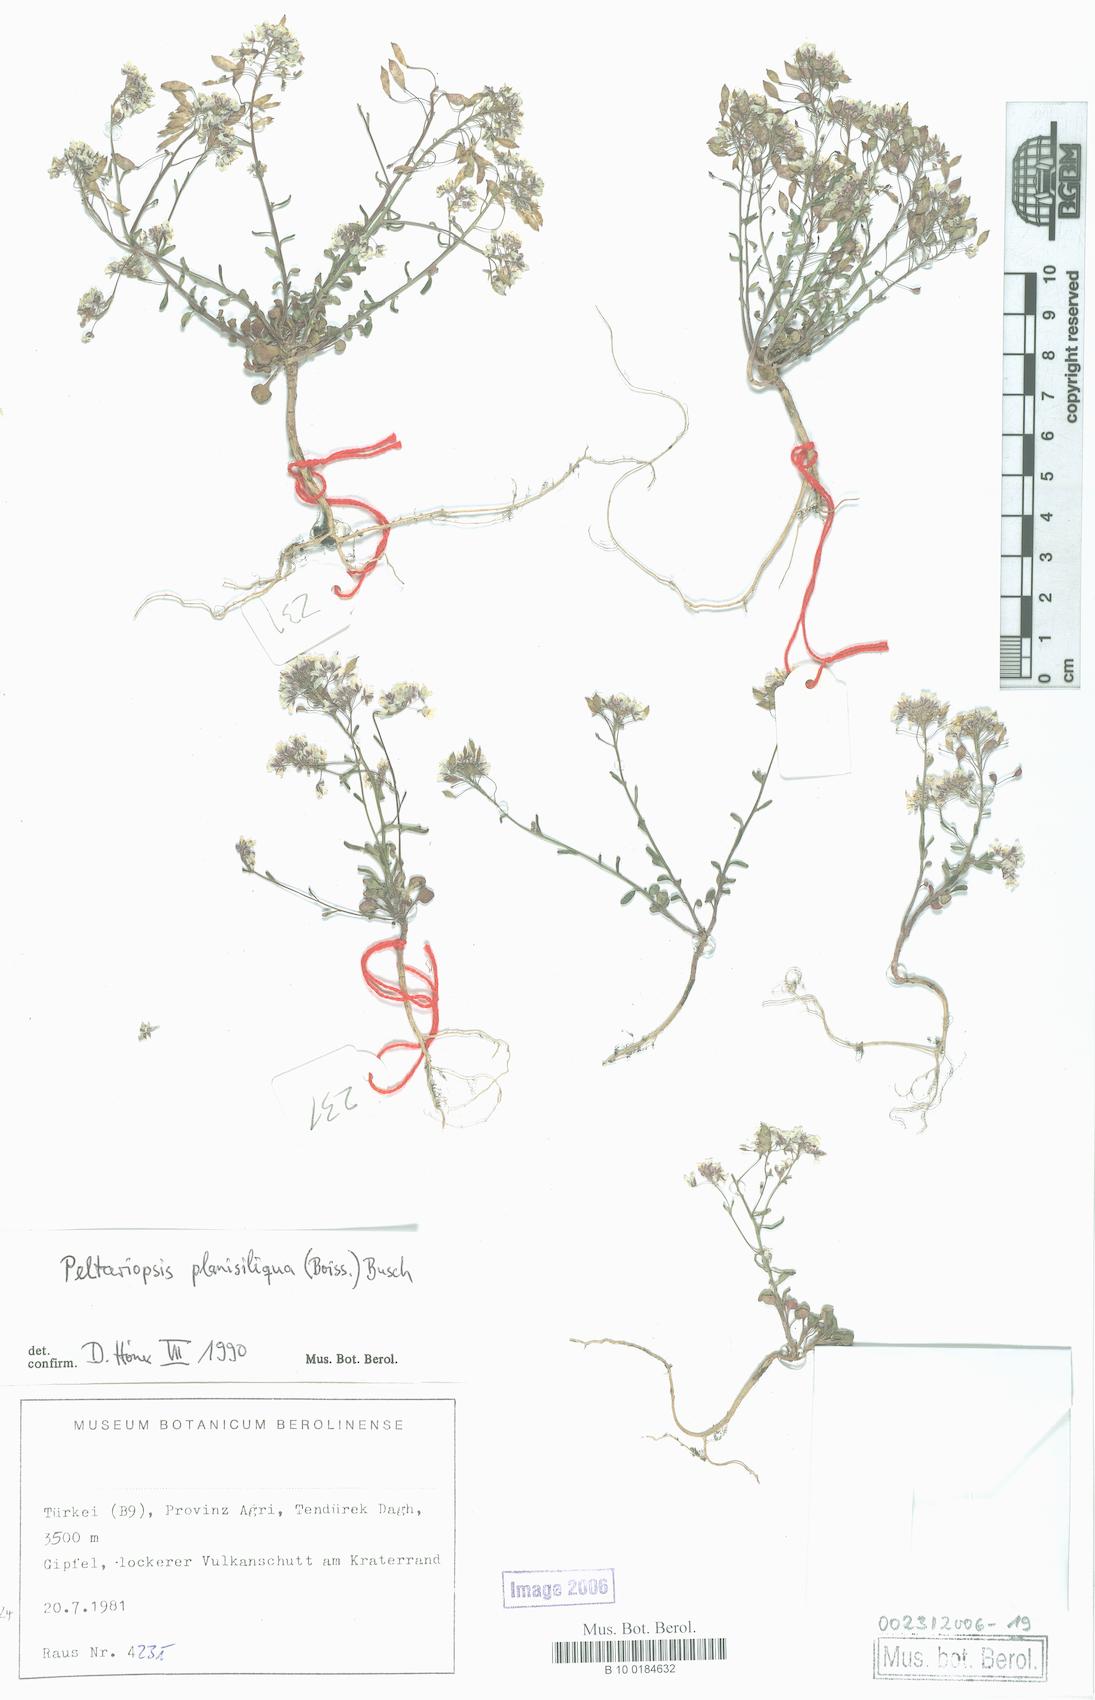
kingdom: Plantae
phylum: Tracheophyta
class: Magnoliopsida
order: Brassicales
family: Brassicaceae
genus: Peltariopsis
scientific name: Peltariopsis planisiliqua
